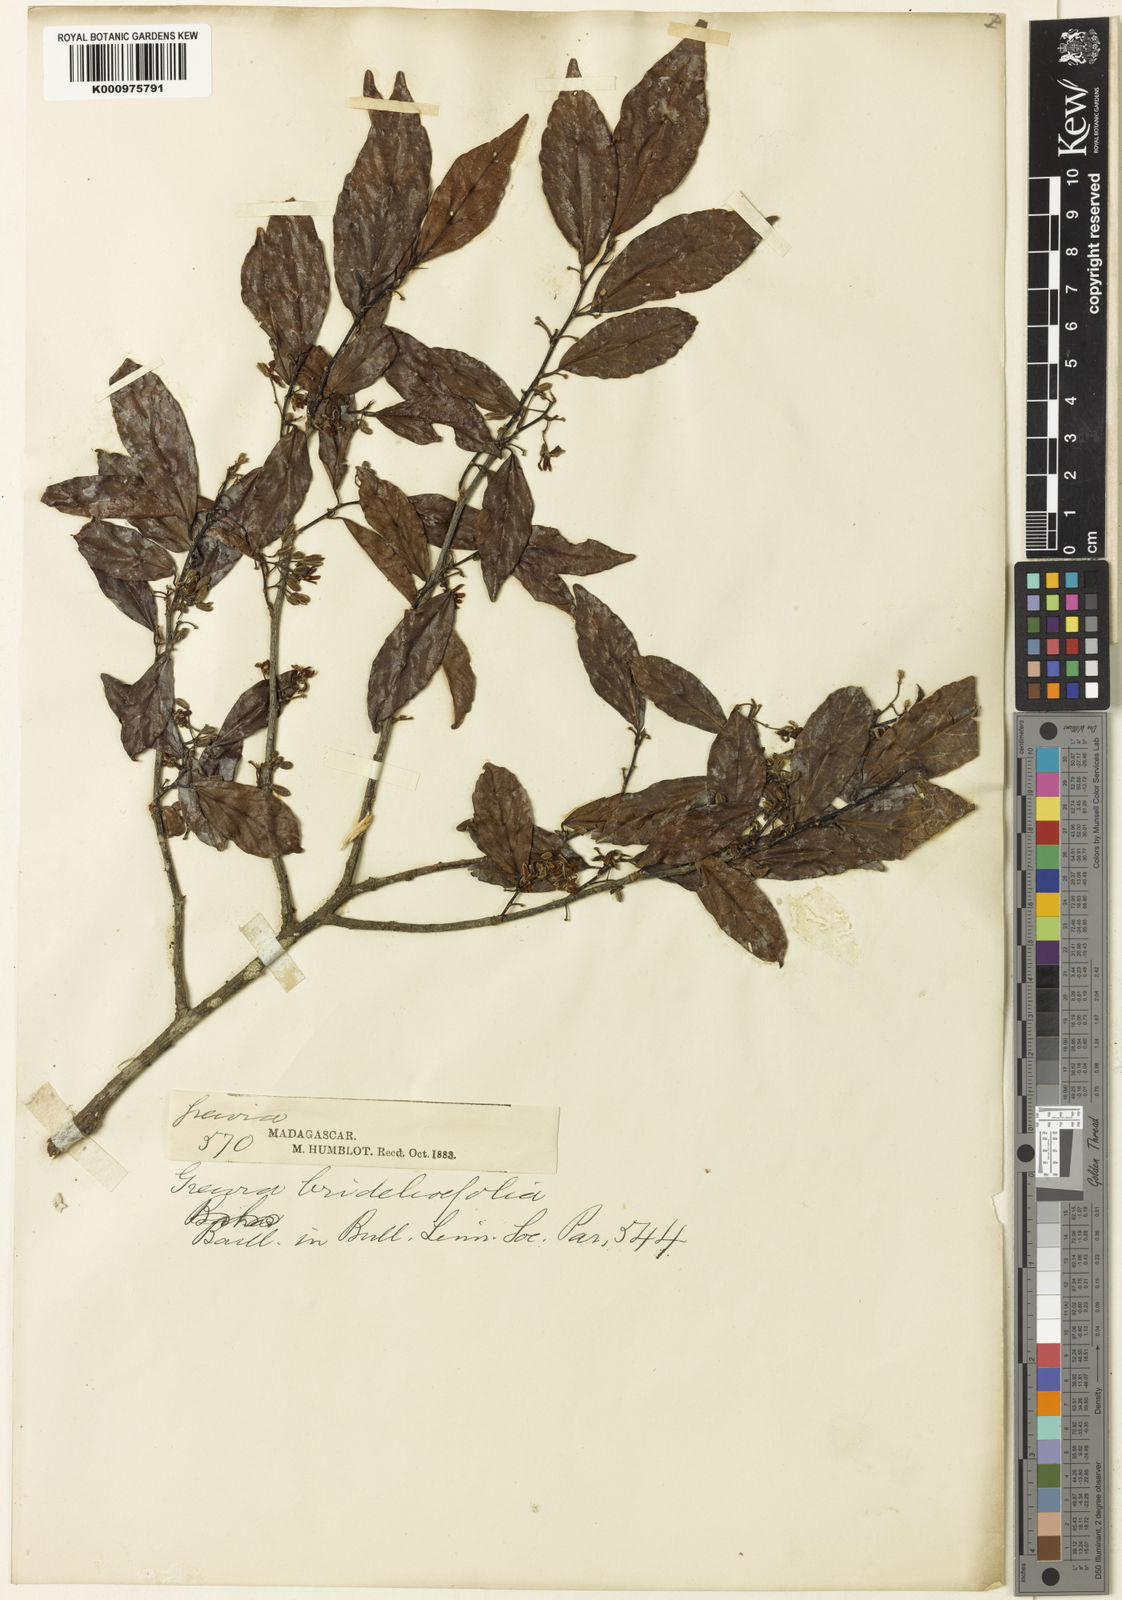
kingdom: Plantae
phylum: Tracheophyta
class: Magnoliopsida
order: Malvales
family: Malvaceae
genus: Grewia
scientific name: Grewia brideliifolia
